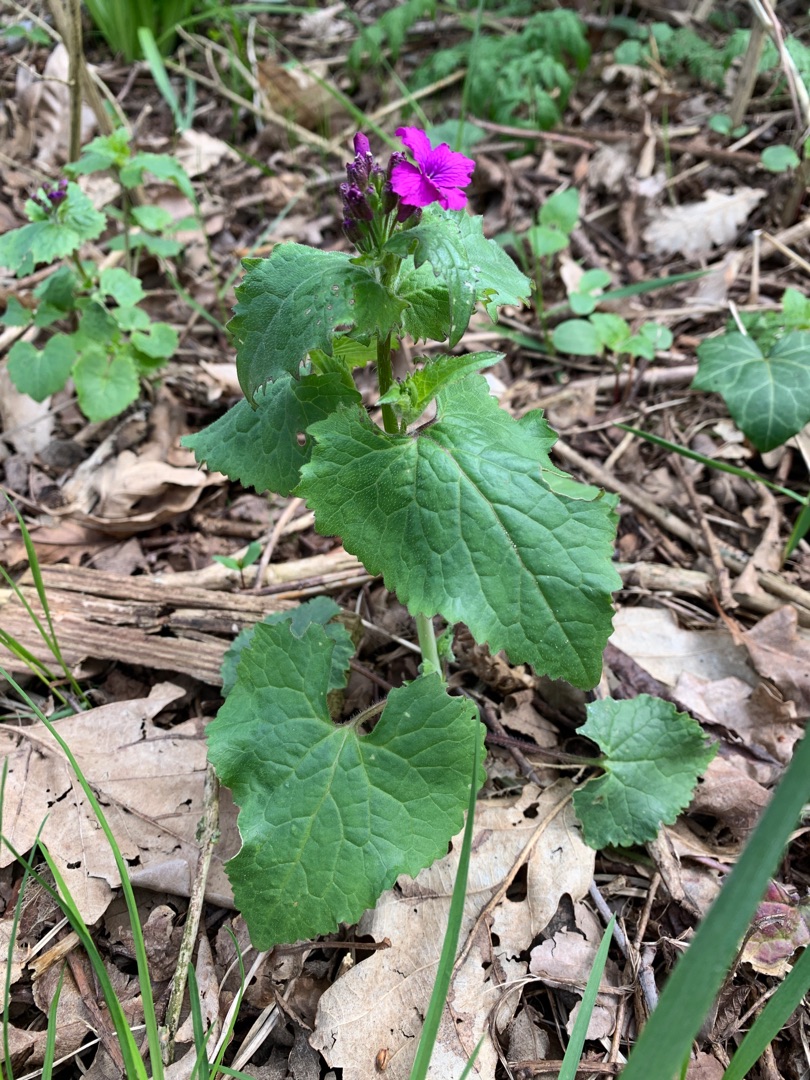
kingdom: Plantae
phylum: Tracheophyta
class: Magnoliopsida
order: Brassicales
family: Brassicaceae
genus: Lunaria
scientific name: Lunaria annua
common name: Judaspenge
